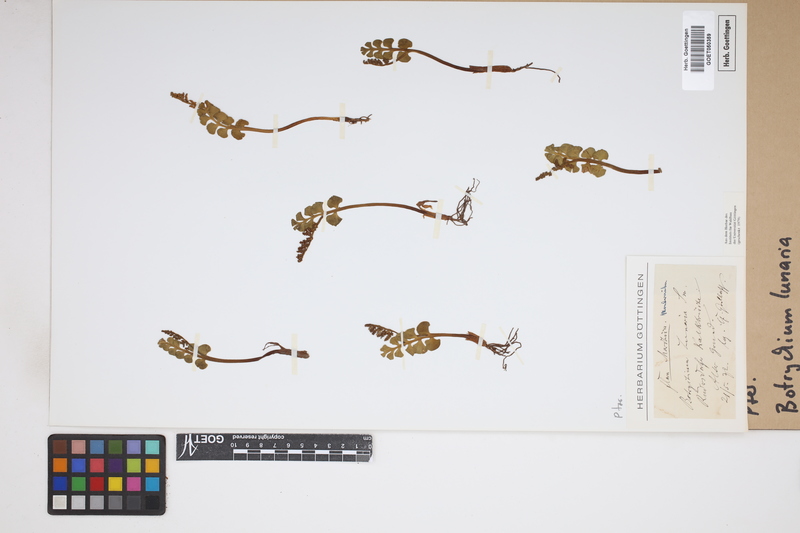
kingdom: Plantae
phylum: Tracheophyta
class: Polypodiopsida
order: Ophioglossales
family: Ophioglossaceae
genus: Botrychium
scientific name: Botrychium lunaria
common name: Moonwort
